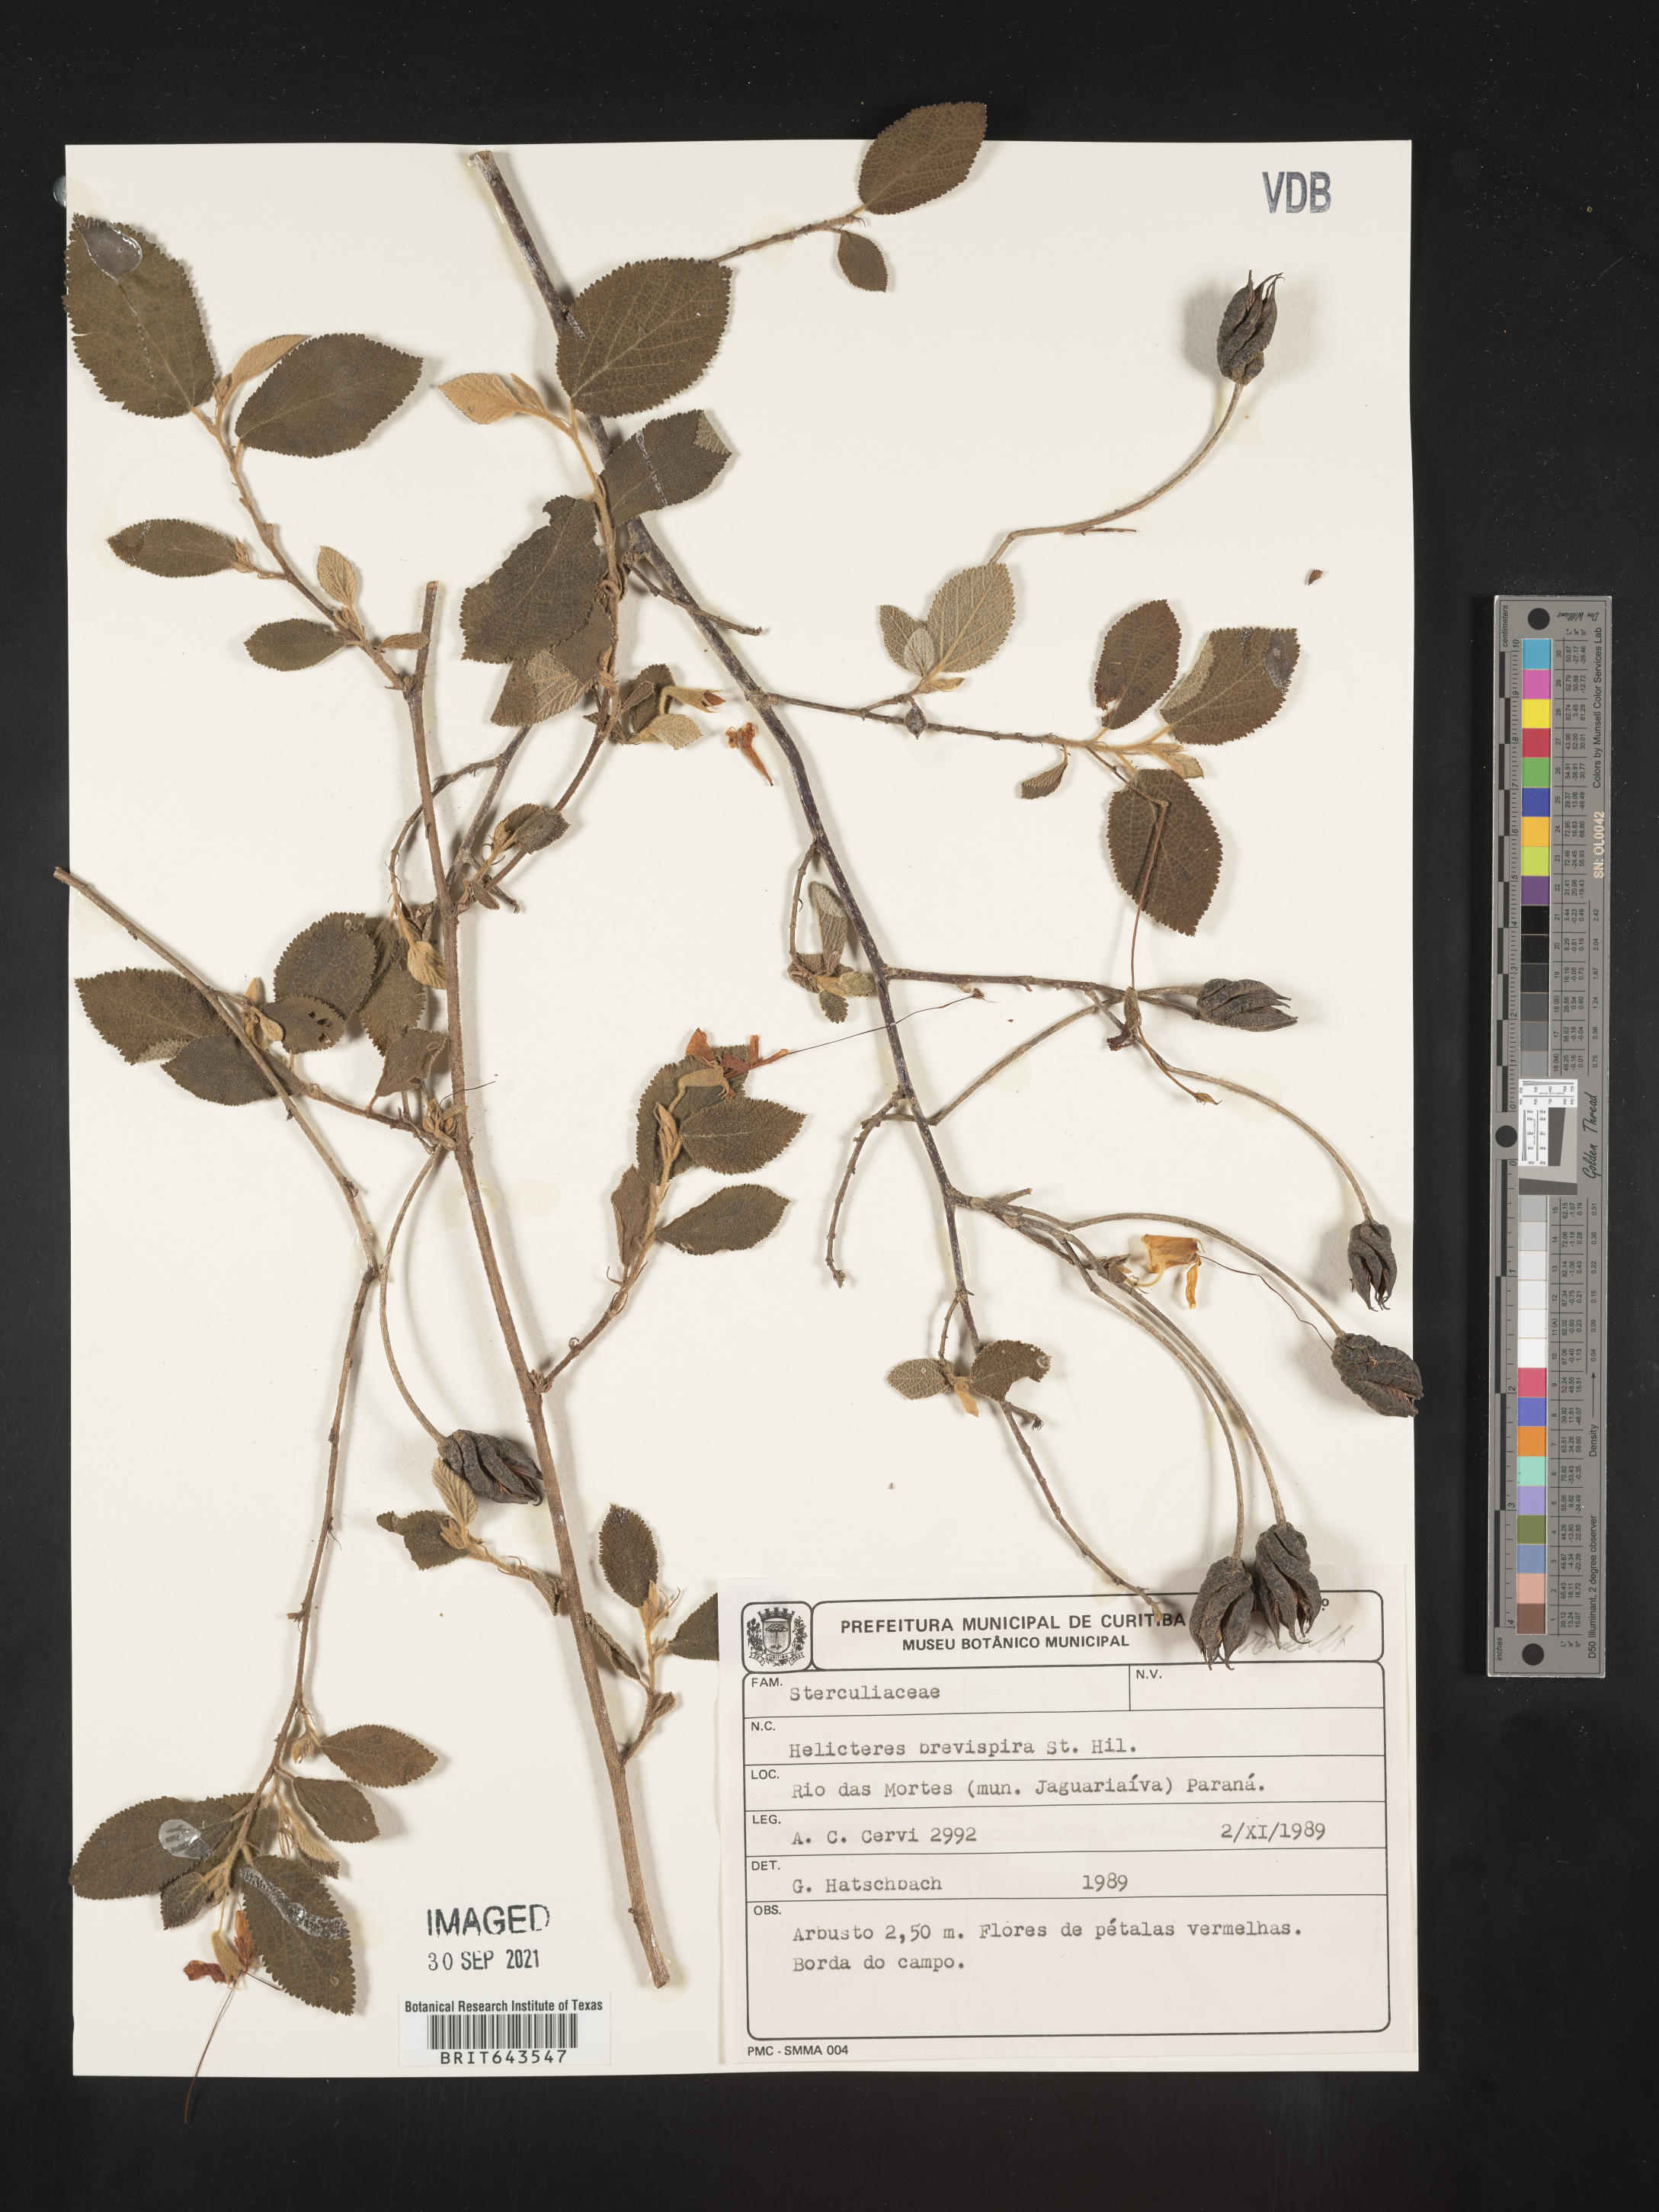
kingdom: Plantae
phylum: Tracheophyta
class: Magnoliopsida
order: Malvales
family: Malvaceae
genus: Helicteres
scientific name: Helicteres
